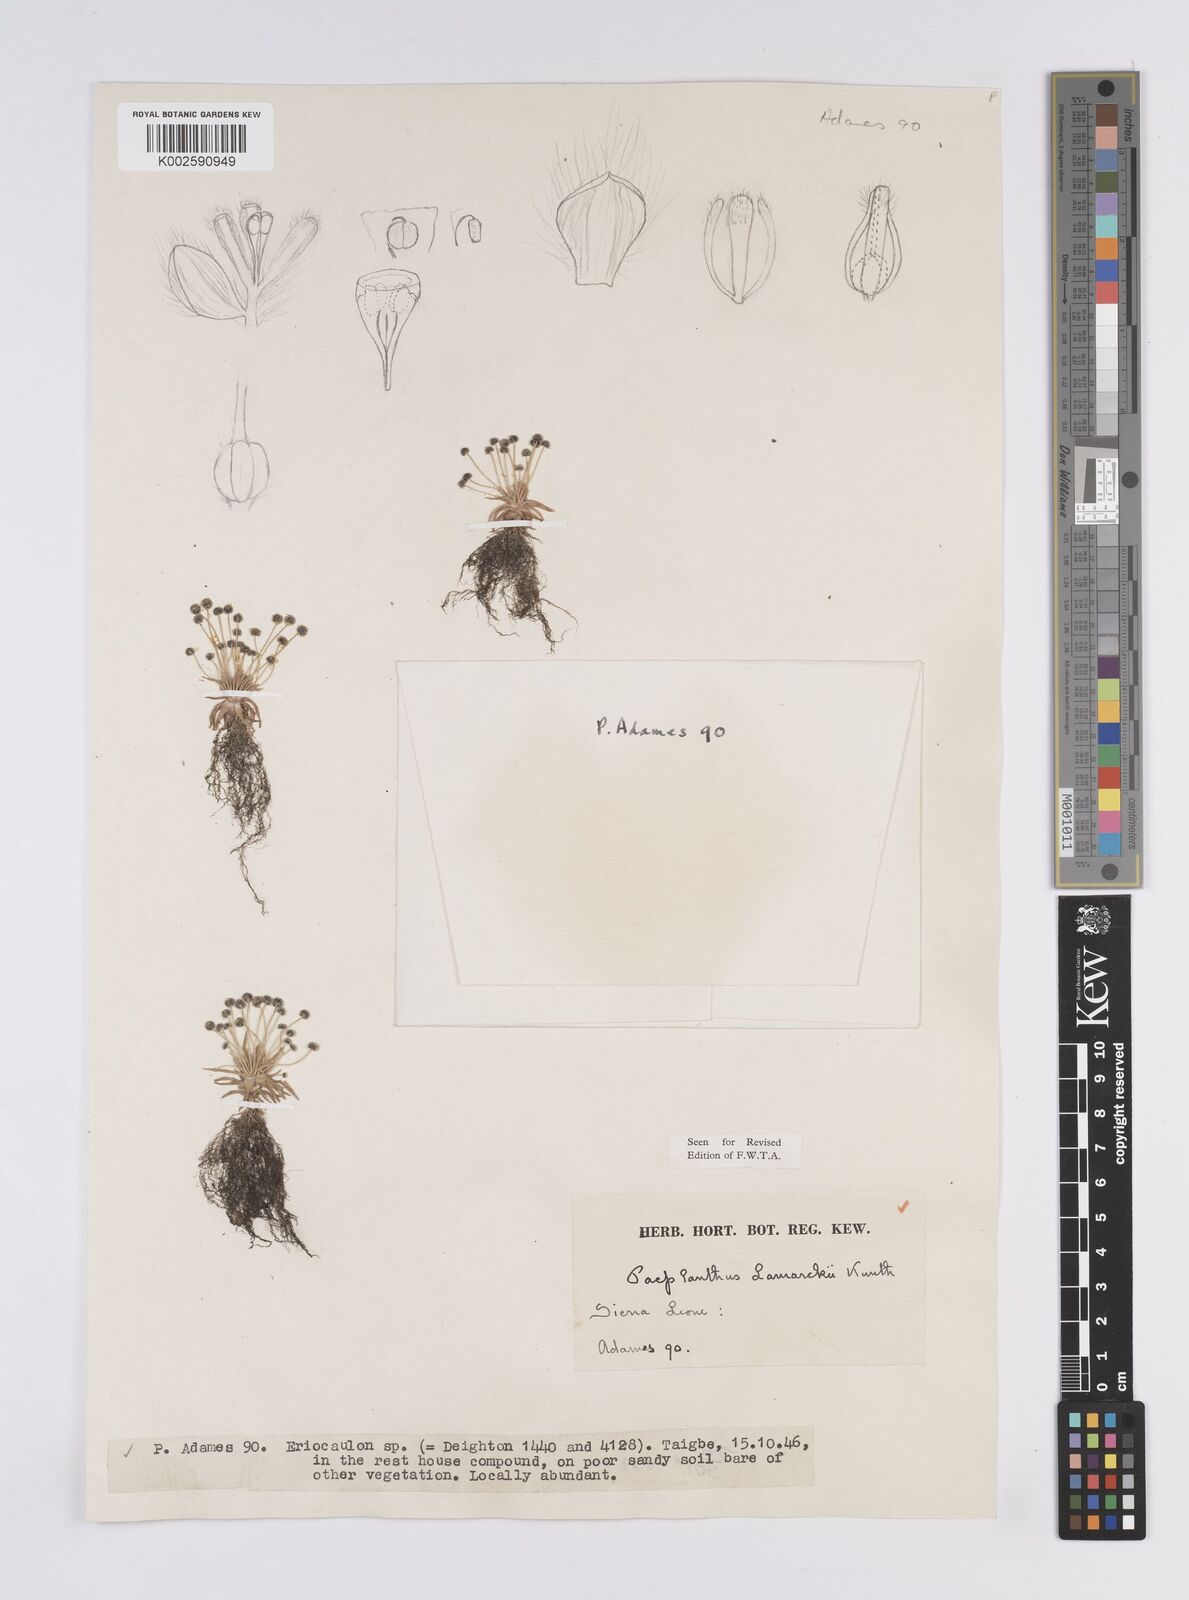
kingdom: Plantae
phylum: Tracheophyta
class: Liliopsida
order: Poales
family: Eriocaulaceae
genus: Paepalanthus
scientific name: Paepalanthus lamarckii
